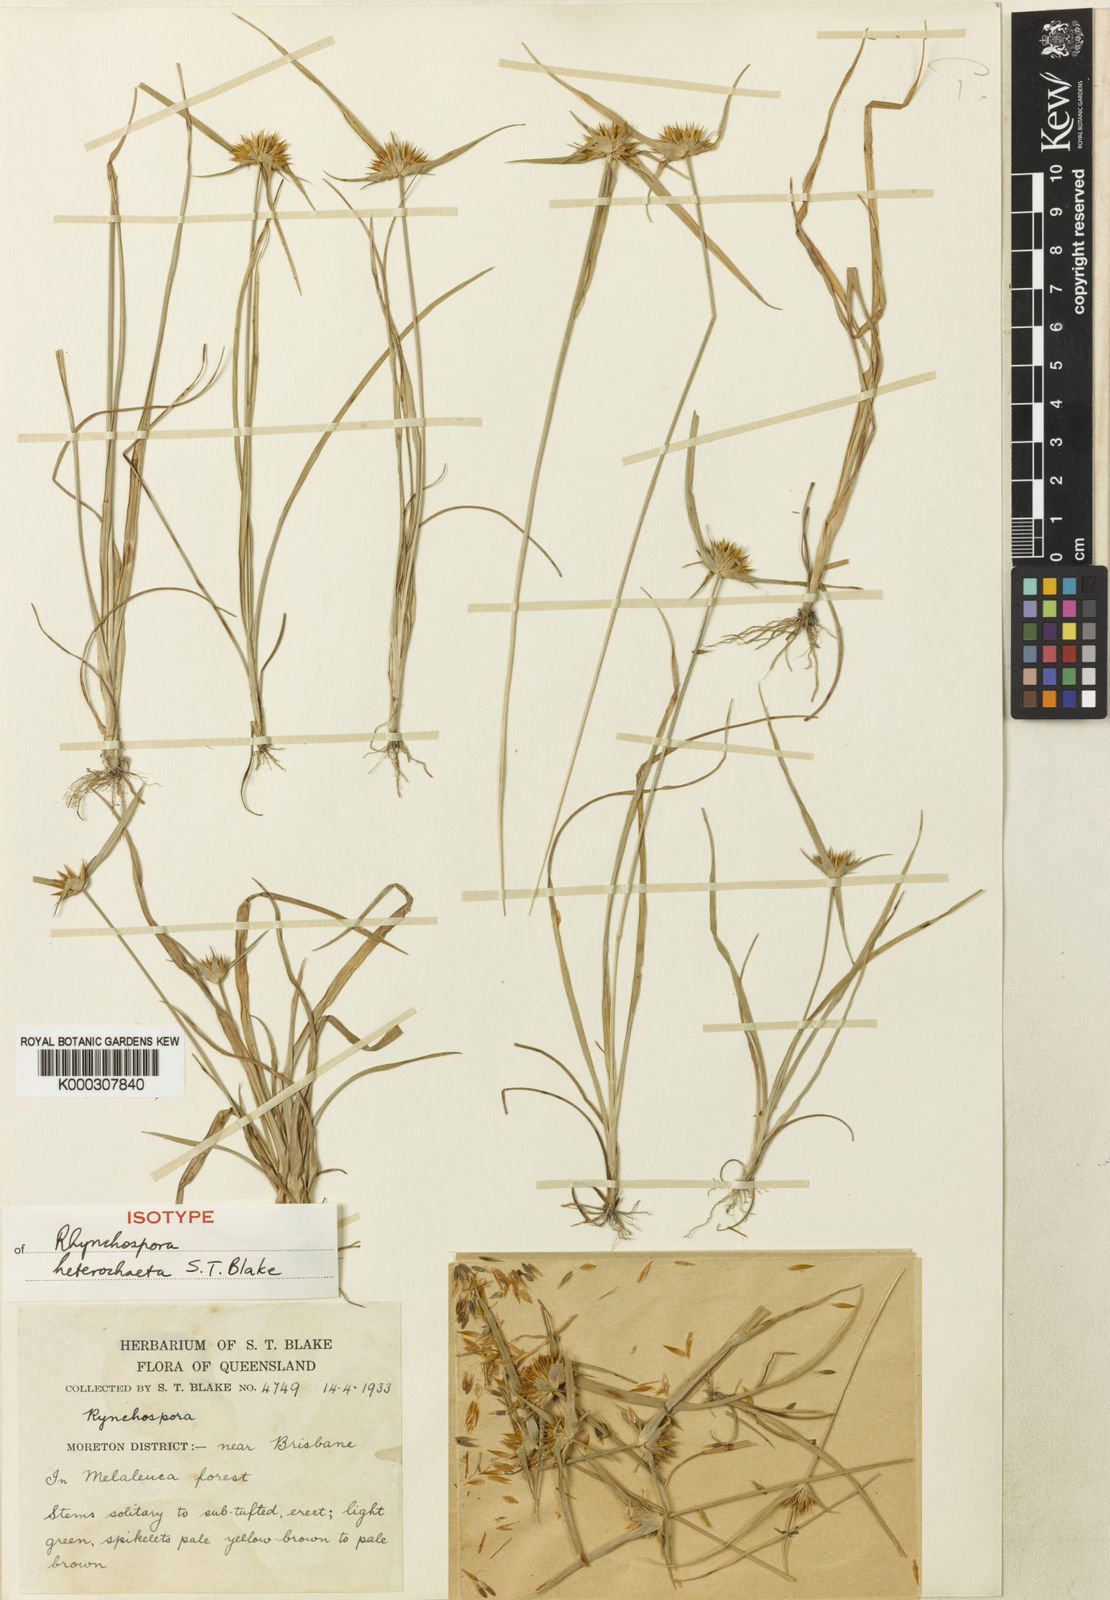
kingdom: Plantae
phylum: Tracheophyta
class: Liliopsida
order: Poales
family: Cyperaceae
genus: Rhynchospora
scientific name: Rhynchospora heterochaeta
